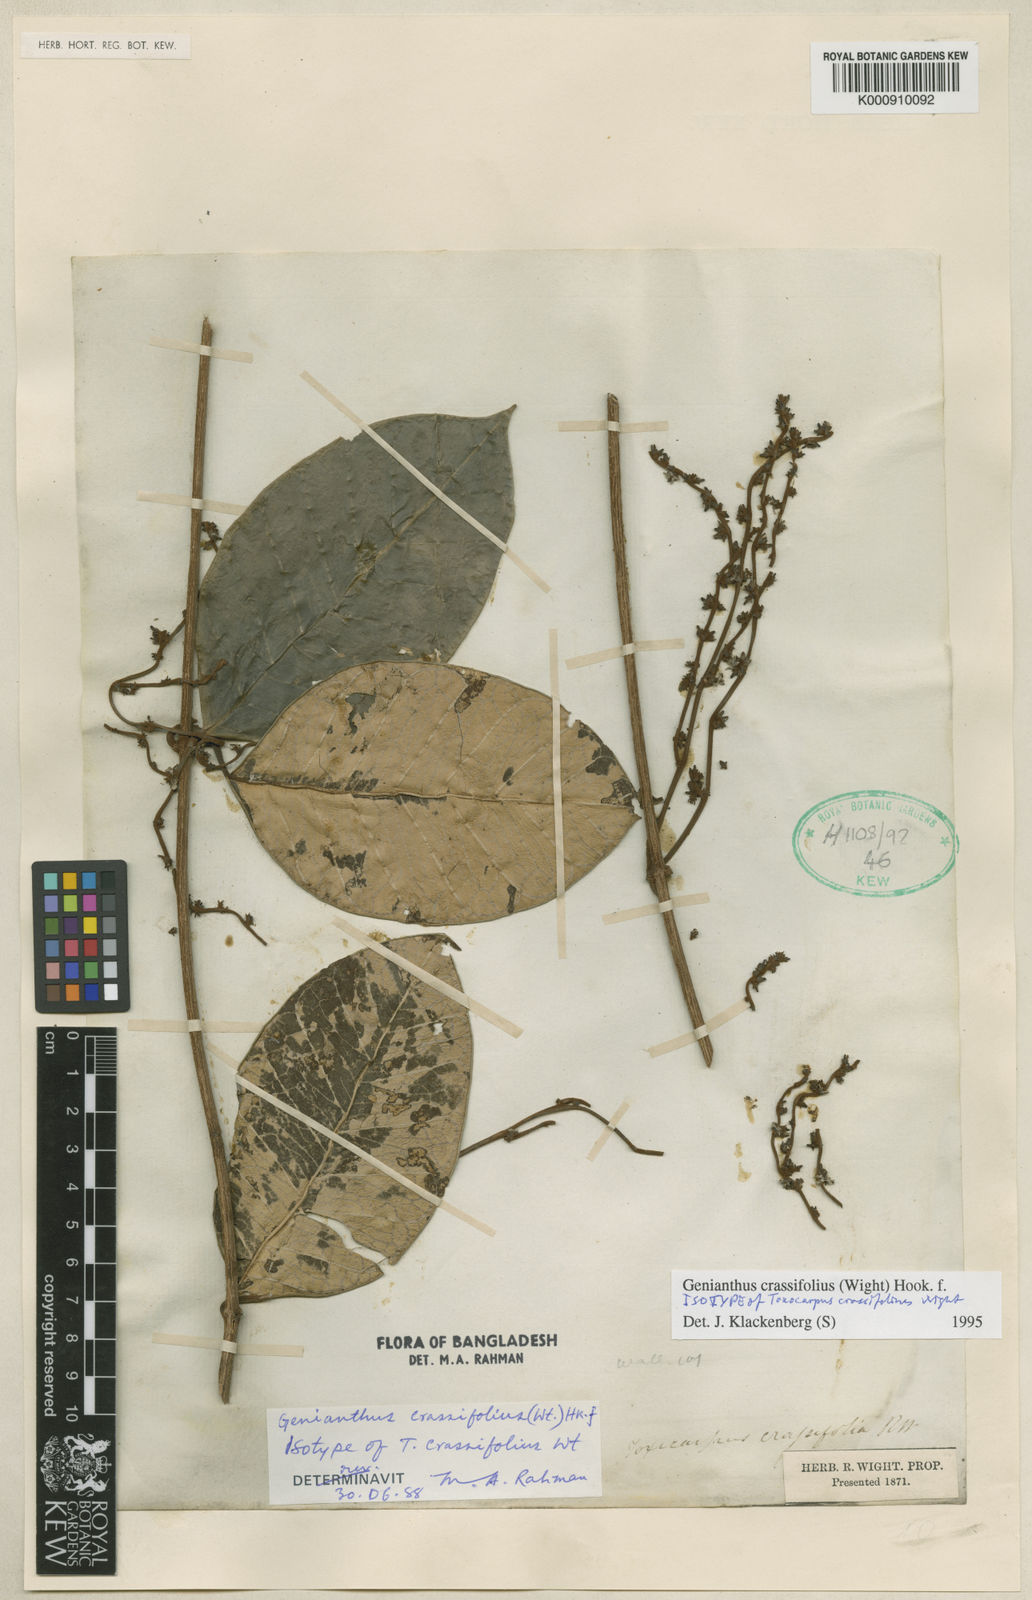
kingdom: Plantae
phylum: Tracheophyta
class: Magnoliopsida
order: Gentianales
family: Apocynaceae
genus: Genianthus
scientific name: Genianthus crassifolius
